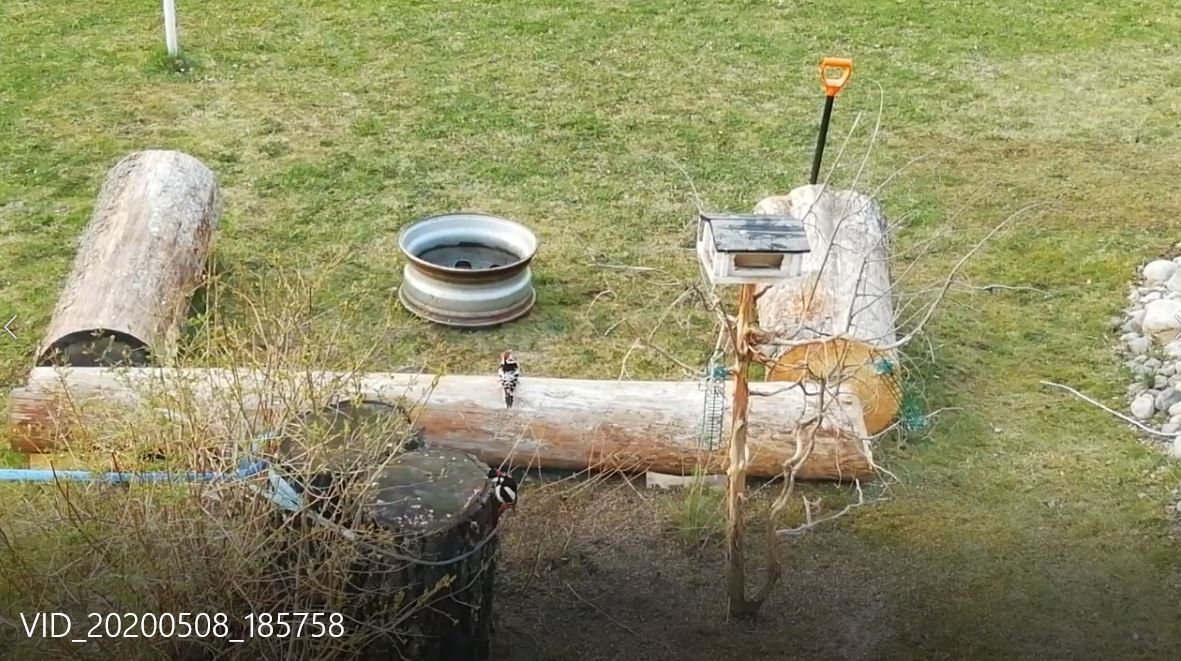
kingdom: Animalia
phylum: Chordata
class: Aves
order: Piciformes
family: Picidae
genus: Dendrocopos
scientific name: Dendrocopos leucotos
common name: White-backed woodpecker
